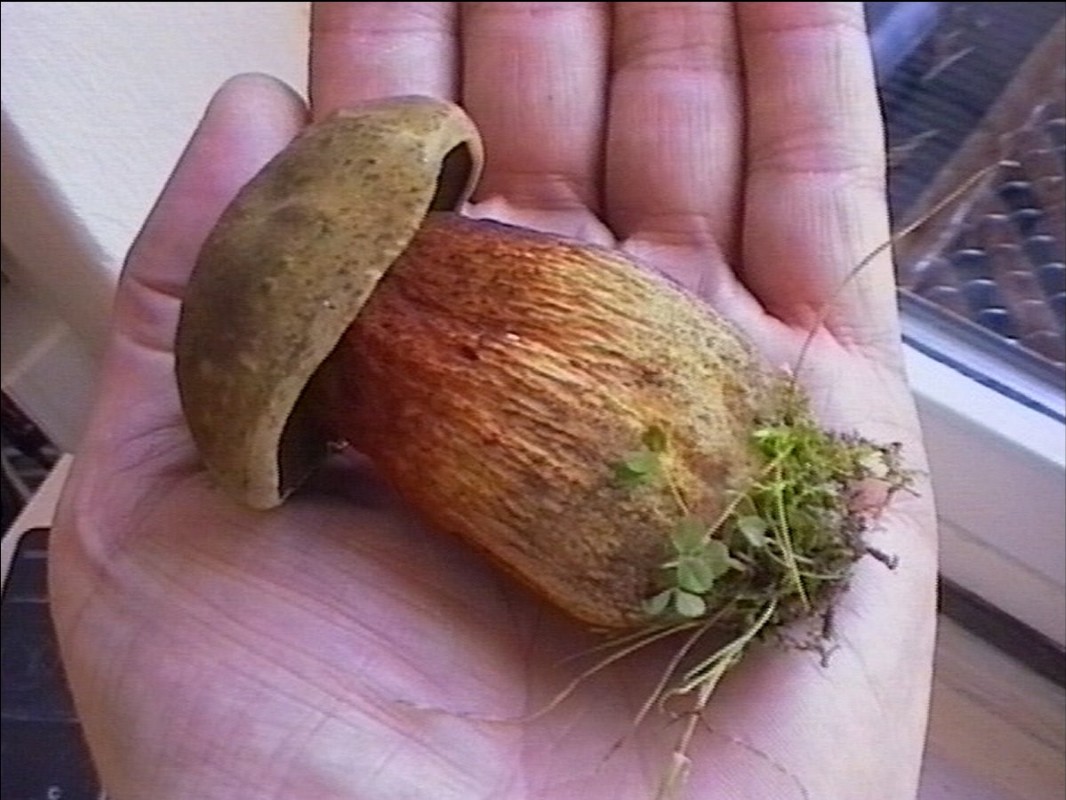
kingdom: Fungi
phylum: Basidiomycota
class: Agaricomycetes
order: Boletales
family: Boletaceae
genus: Suillellus
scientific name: Suillellus luridus
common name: netstokket indigorørhat
